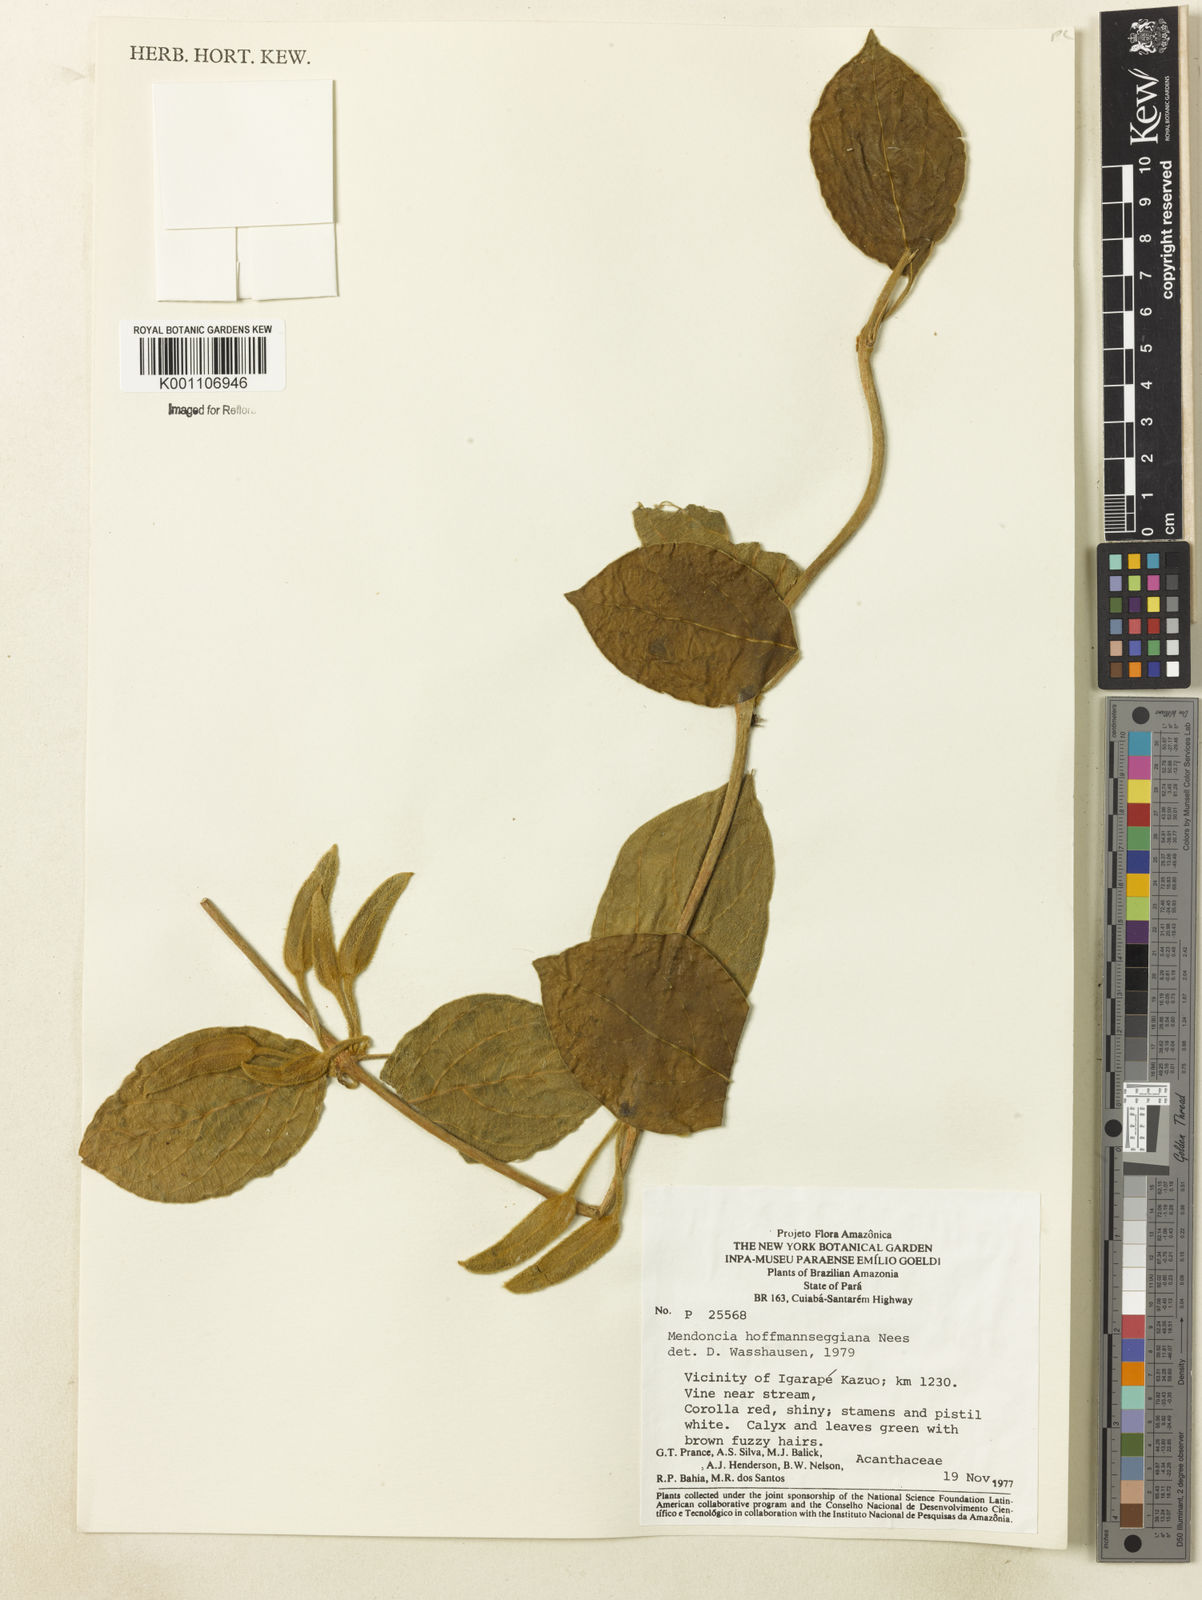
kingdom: Plantae
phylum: Tracheophyta
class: Magnoliopsida
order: Lamiales
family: Acanthaceae
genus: Mendoncia
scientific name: Mendoncia hoffmannseggiana
